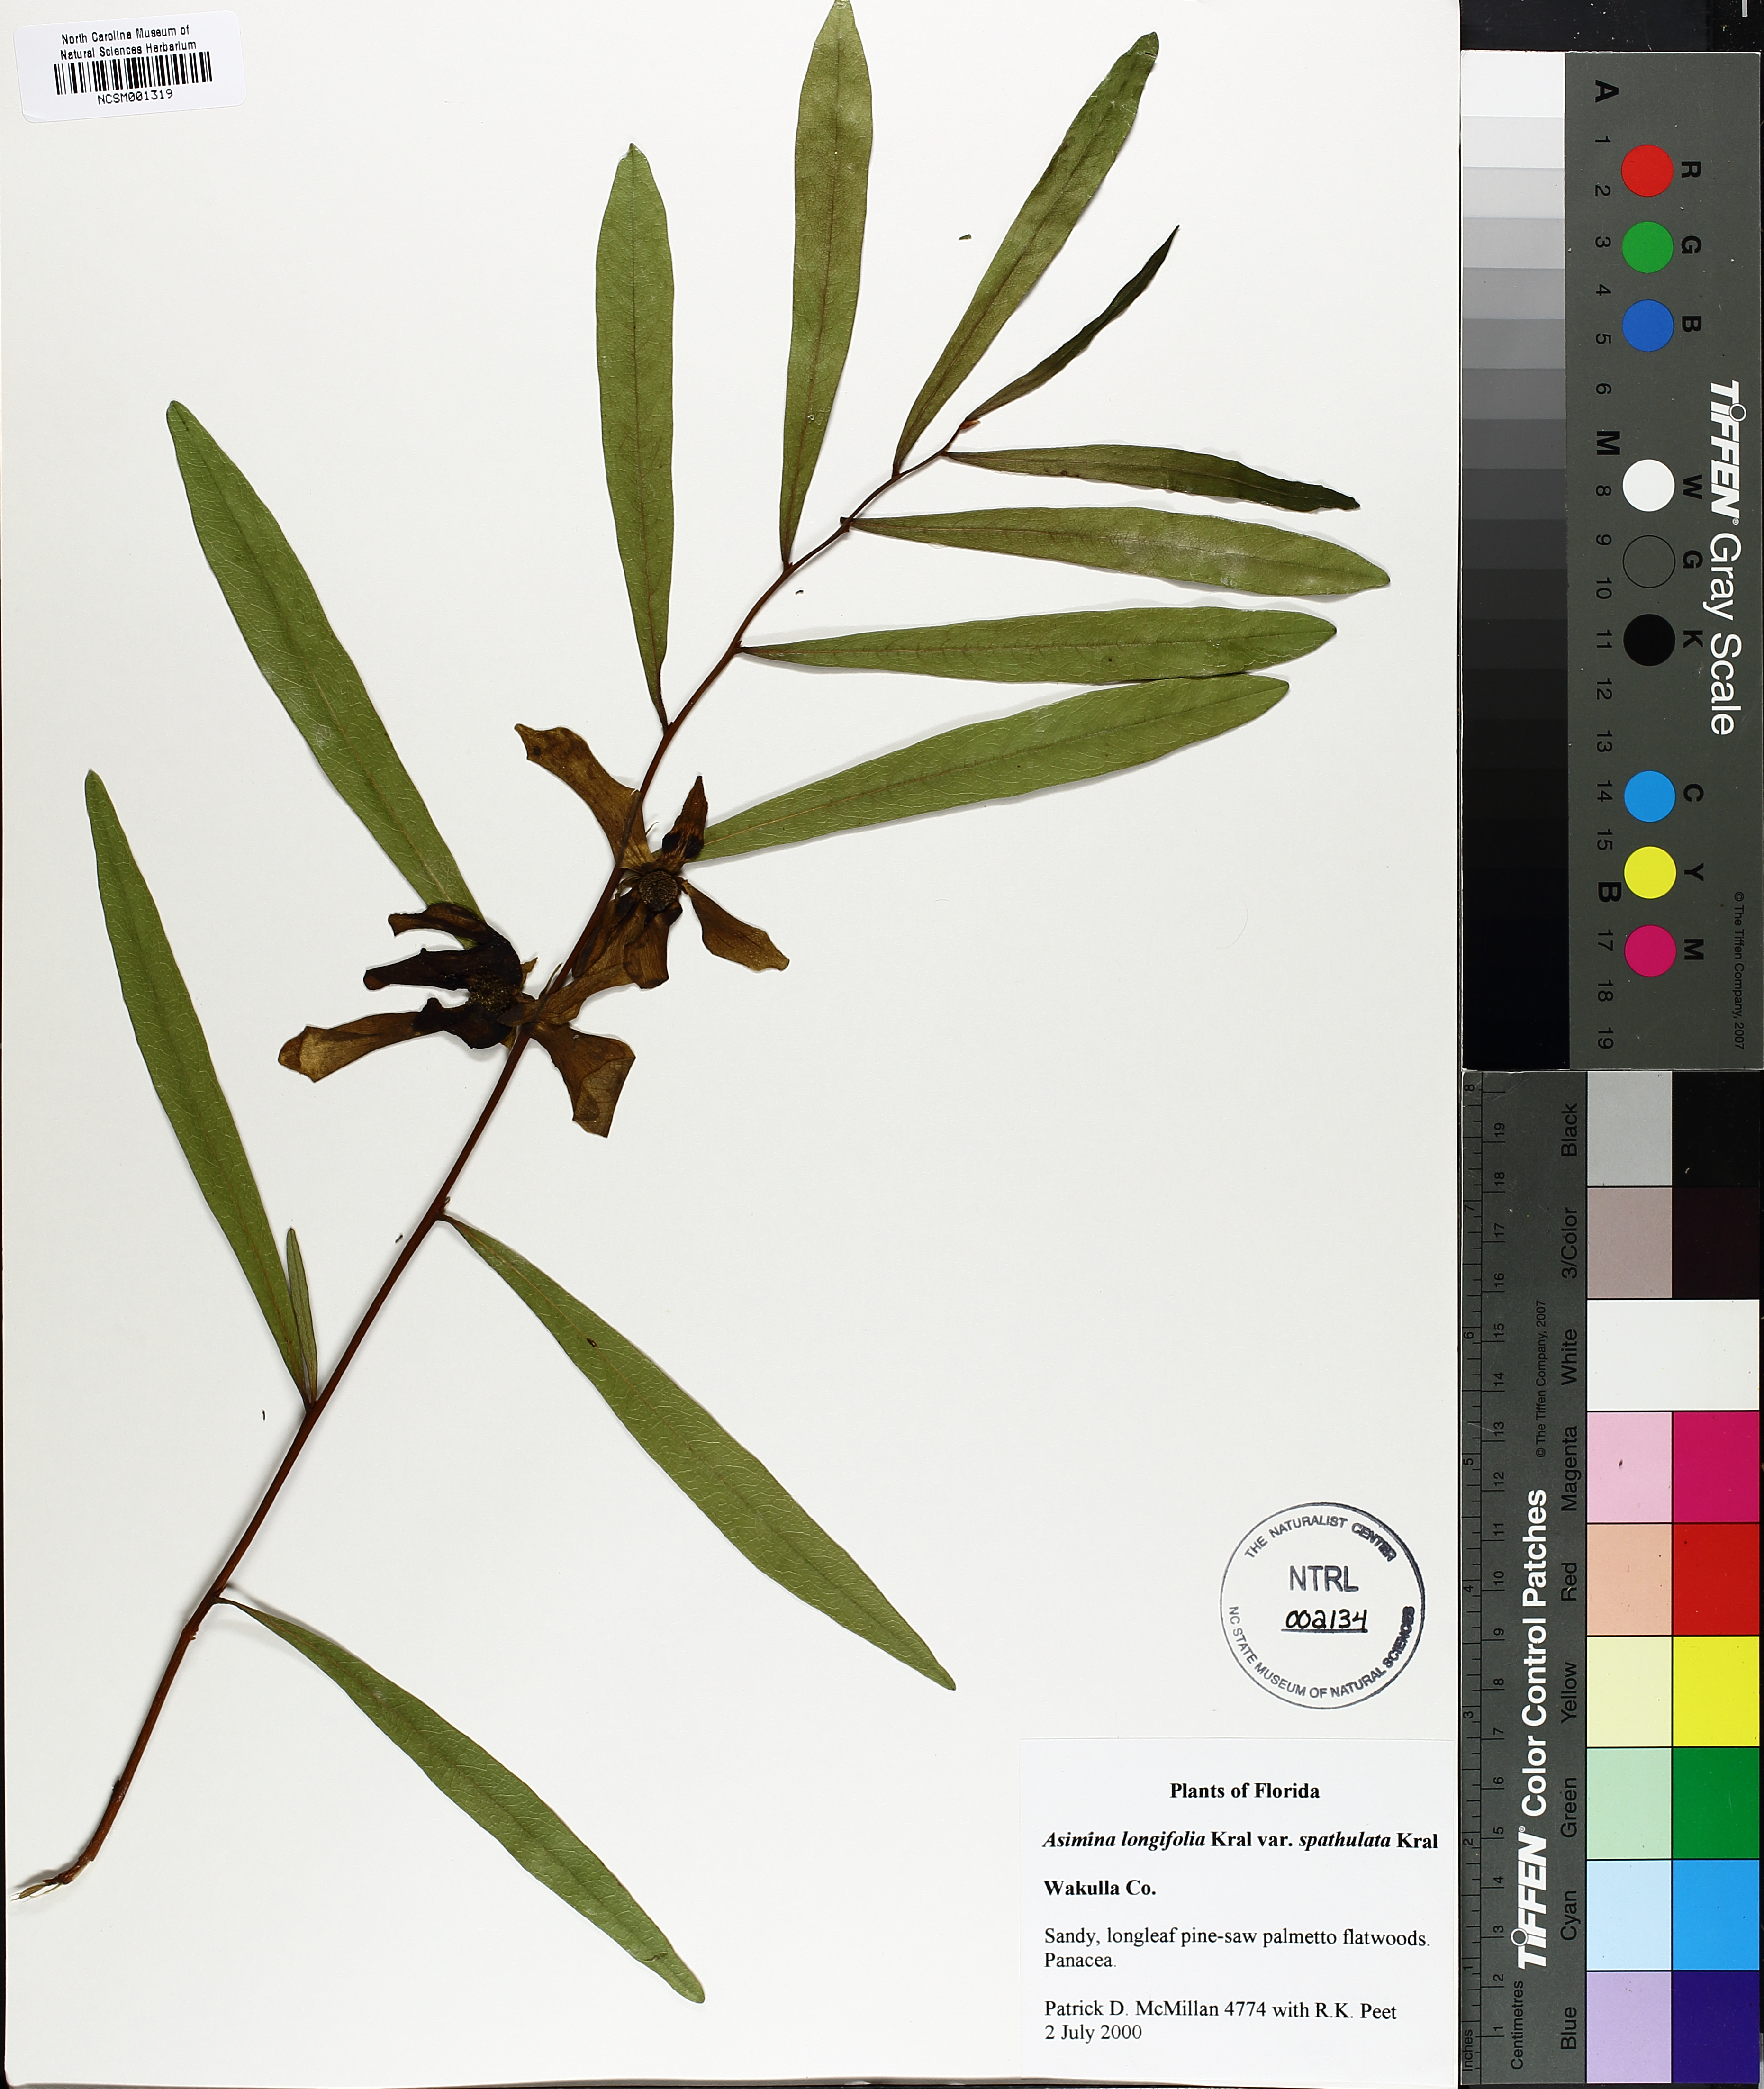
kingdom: Plantae
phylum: Tracheophyta
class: Magnoliopsida
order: Magnoliales
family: Annonaceae
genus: Asimina
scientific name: Asimina longifolia
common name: Polecatbush
